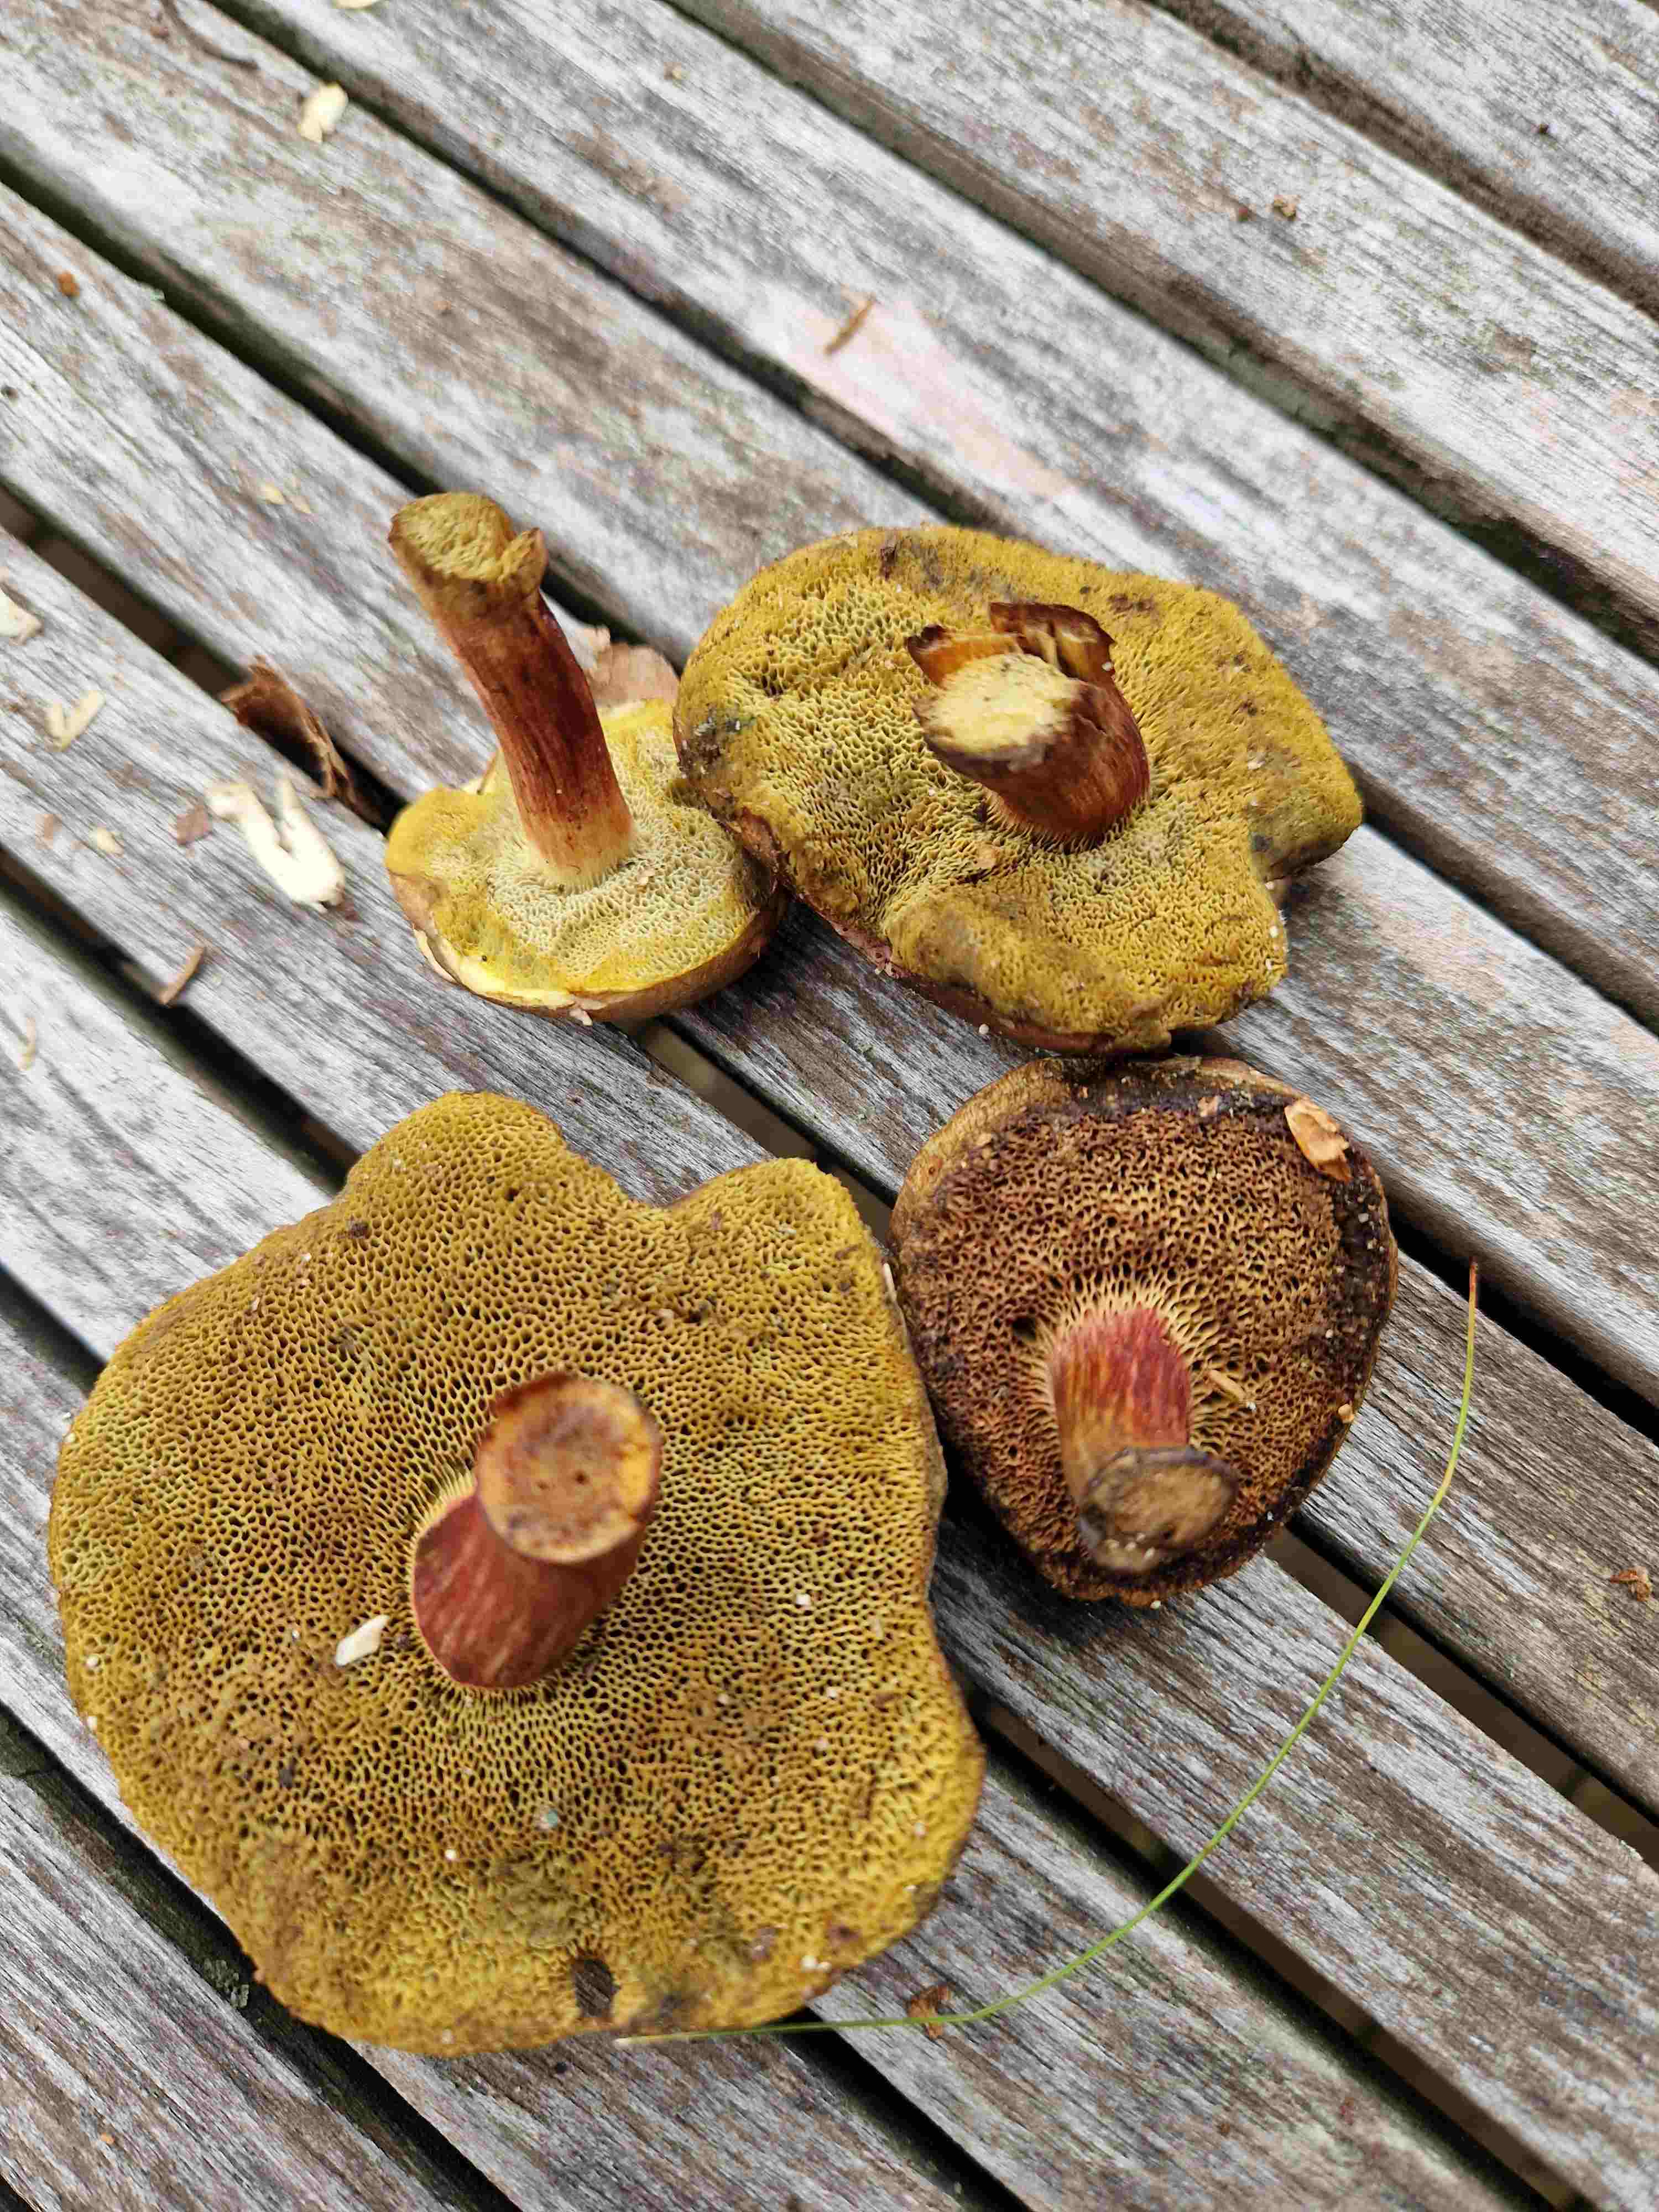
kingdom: Fungi
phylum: Basidiomycota
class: Agaricomycetes
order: Boletales
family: Boletaceae
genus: Xerocomellus
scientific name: Xerocomellus
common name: dværgrørhat
